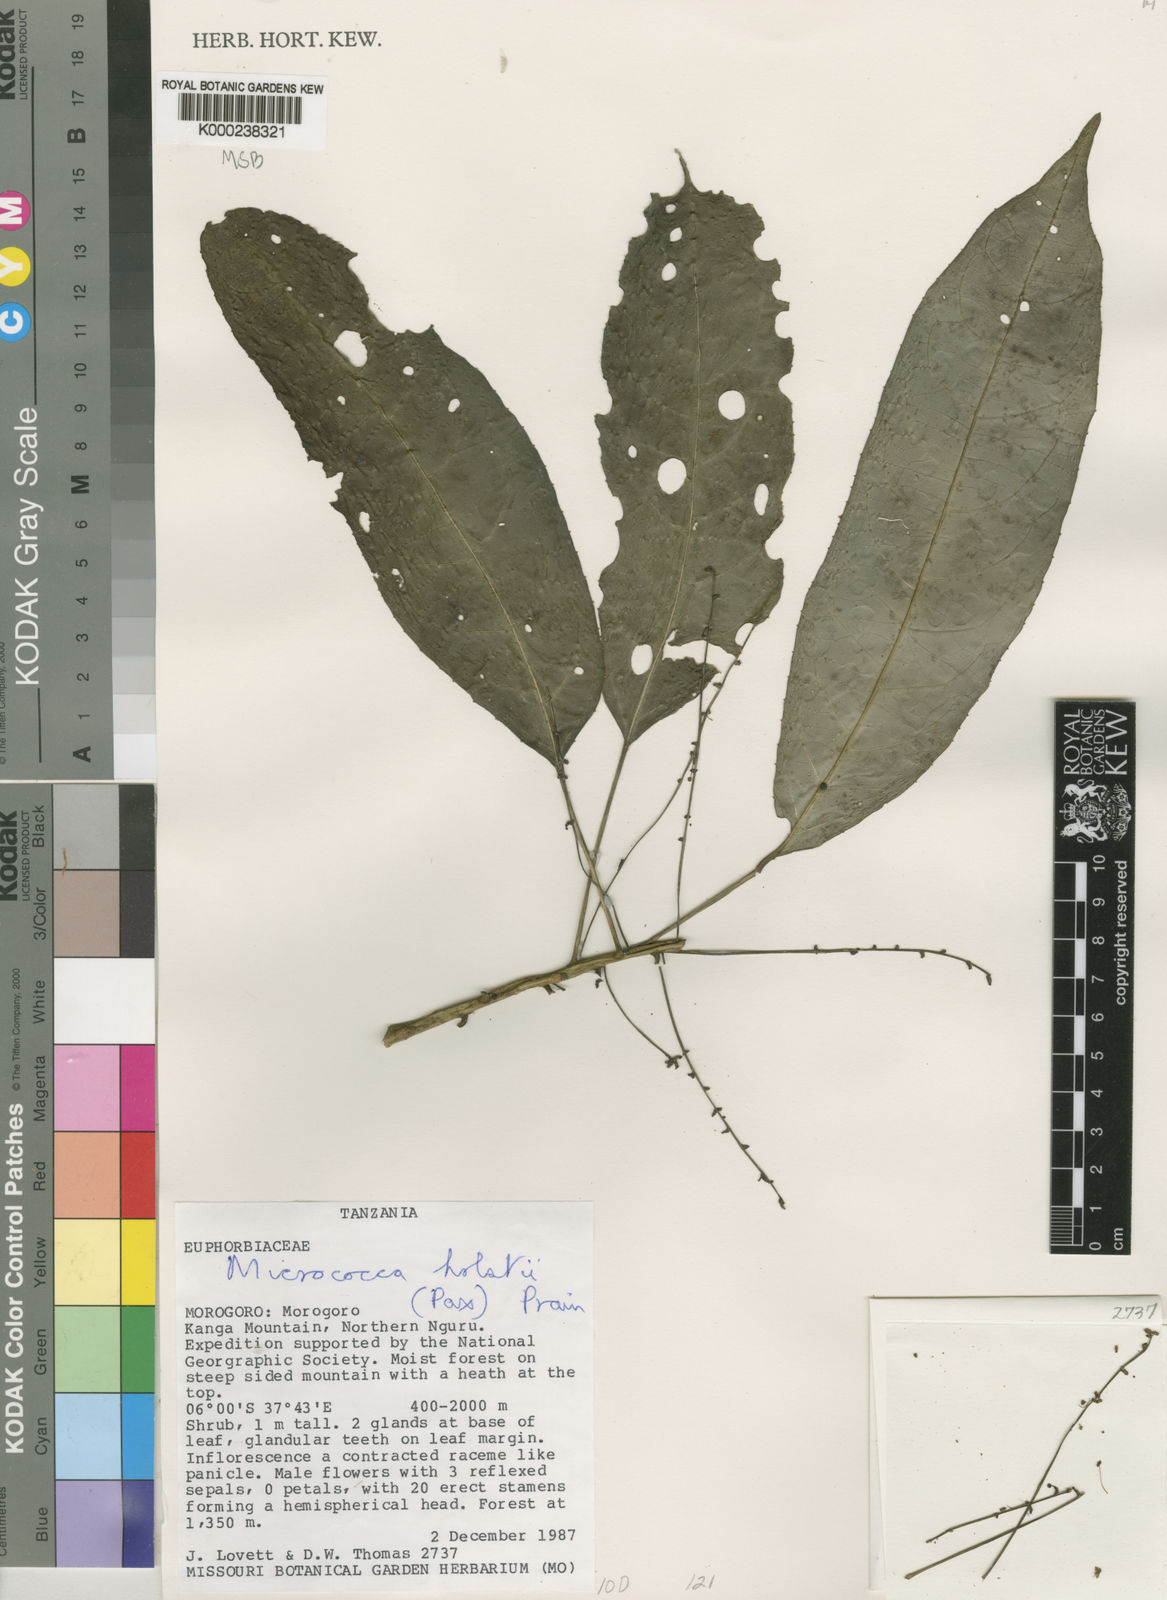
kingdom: Plantae
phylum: Tracheophyta
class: Magnoliopsida
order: Malpighiales
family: Euphorbiaceae
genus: Micrococca
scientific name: Micrococca holstii
